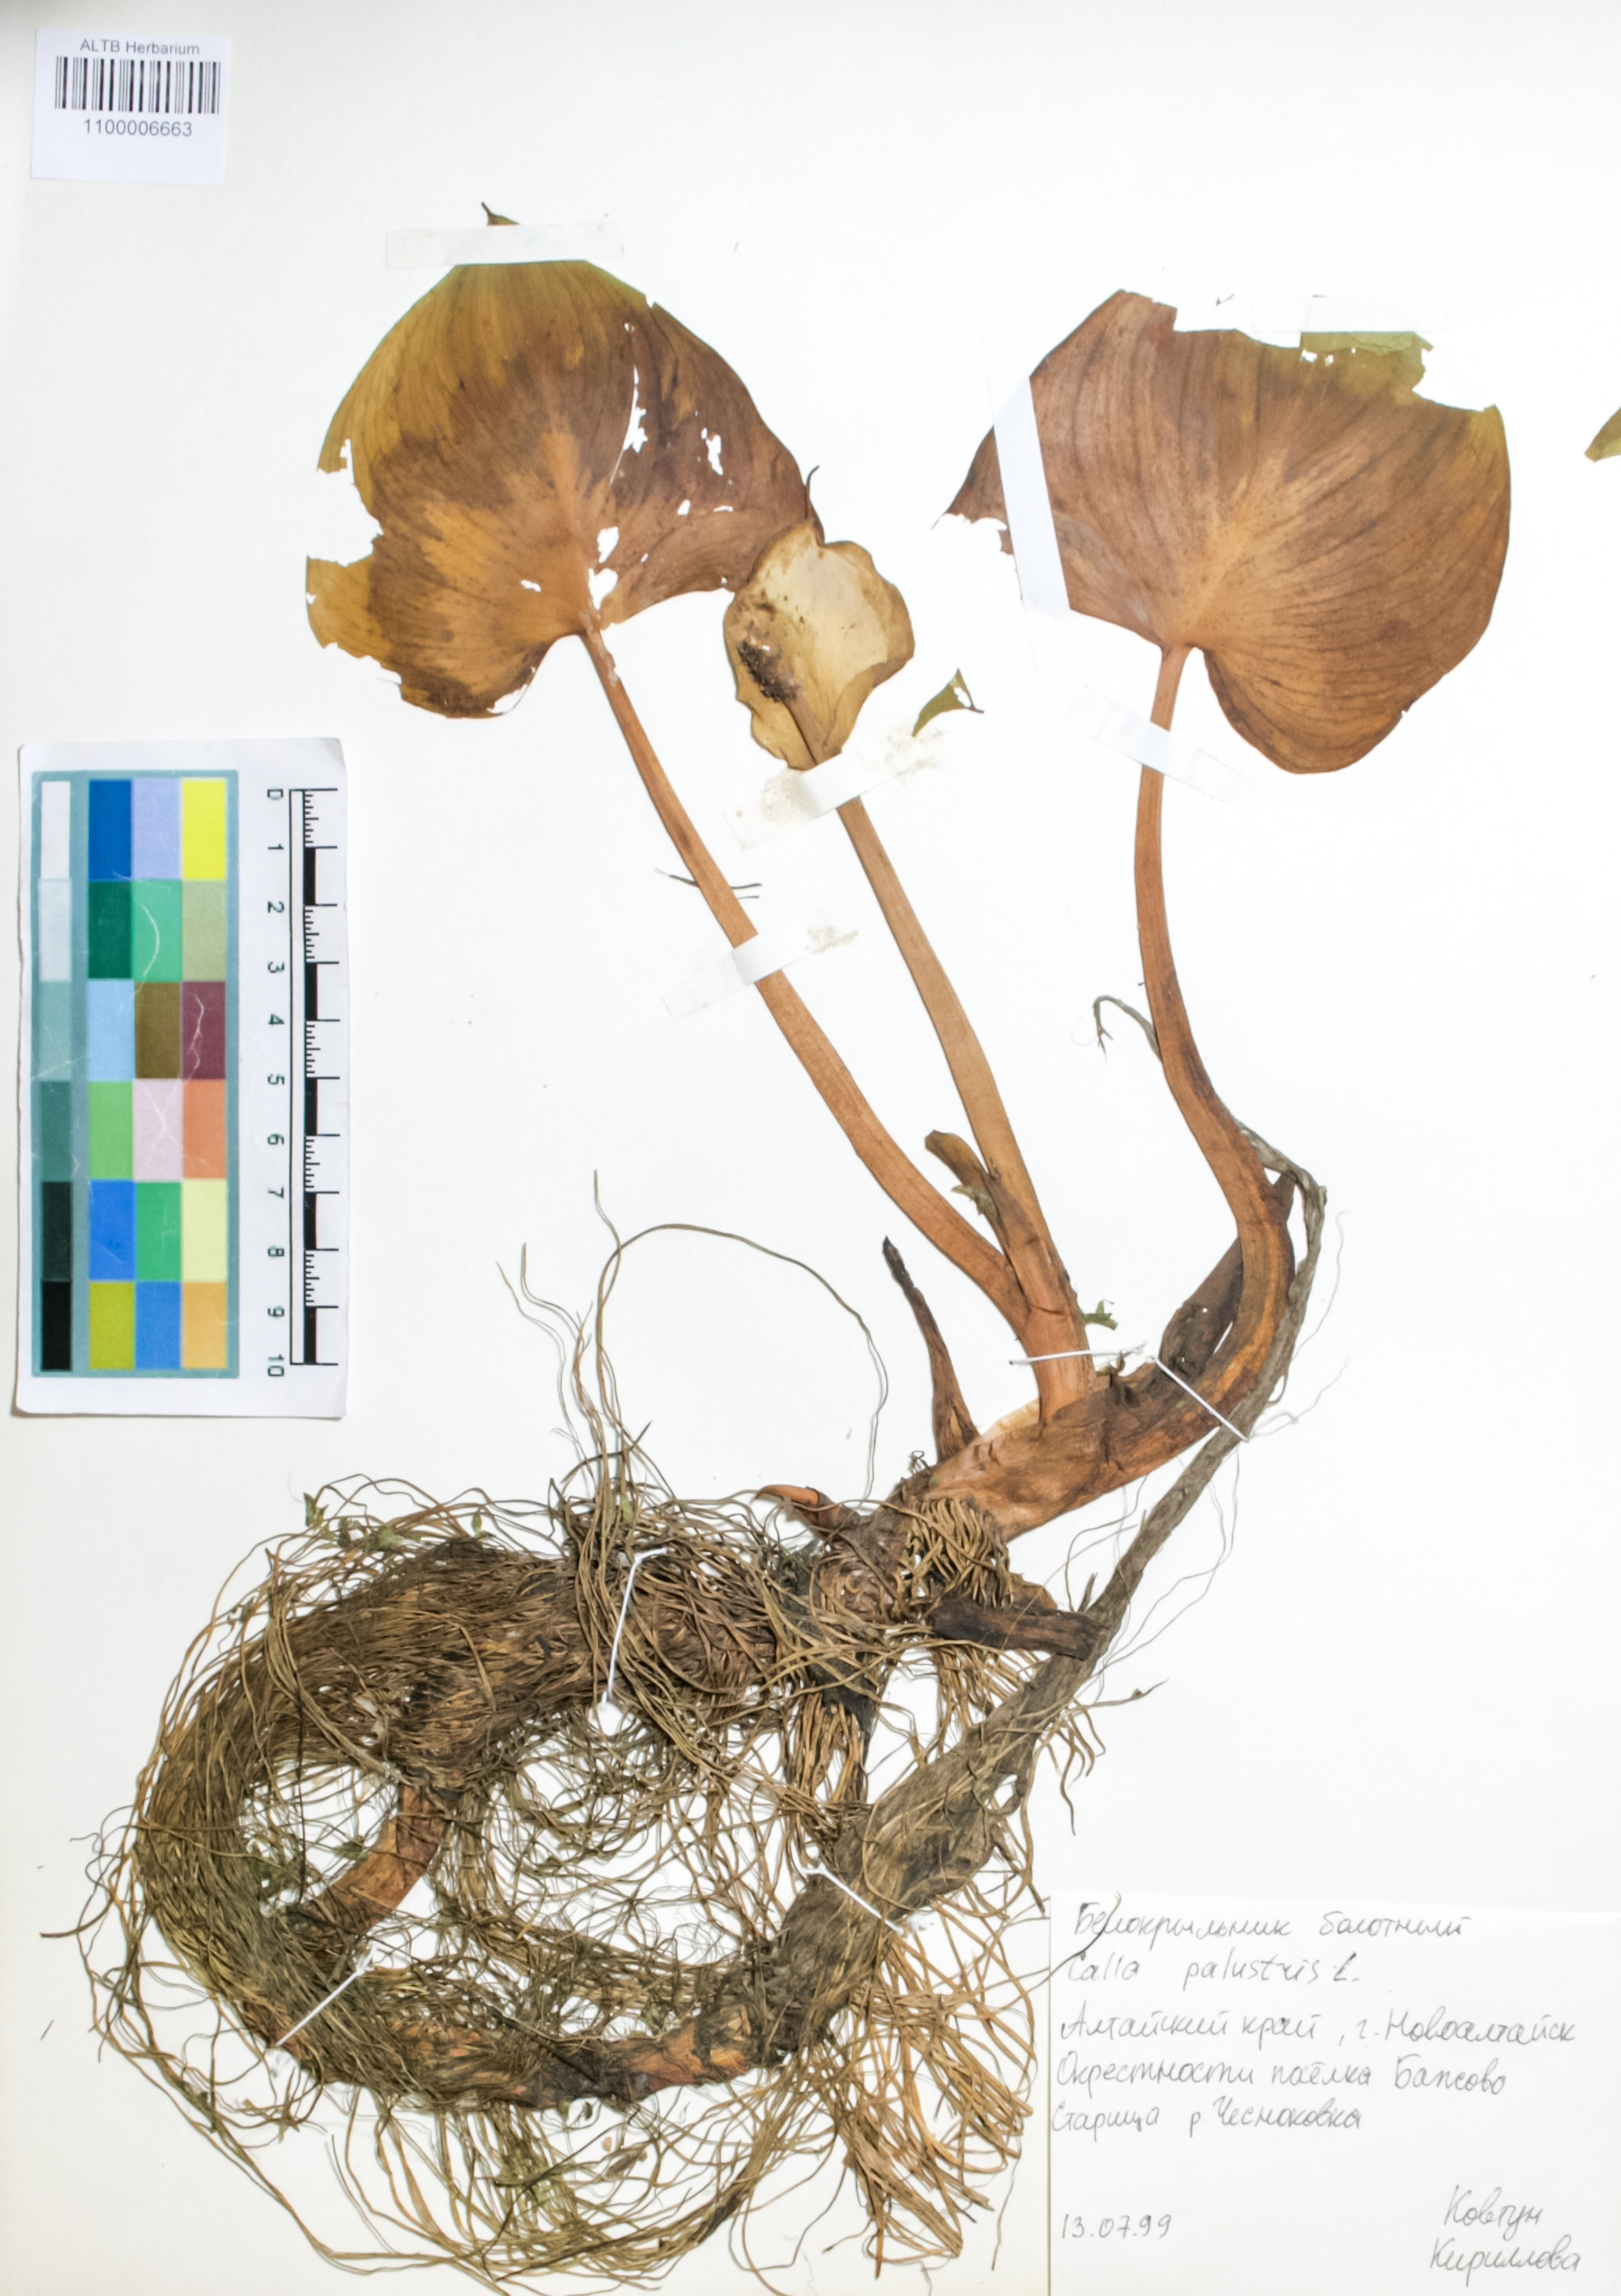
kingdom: Plantae
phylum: Tracheophyta
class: Liliopsida
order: Alismatales
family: Araceae
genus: Calla
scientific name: Calla palustris
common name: Bog arum
